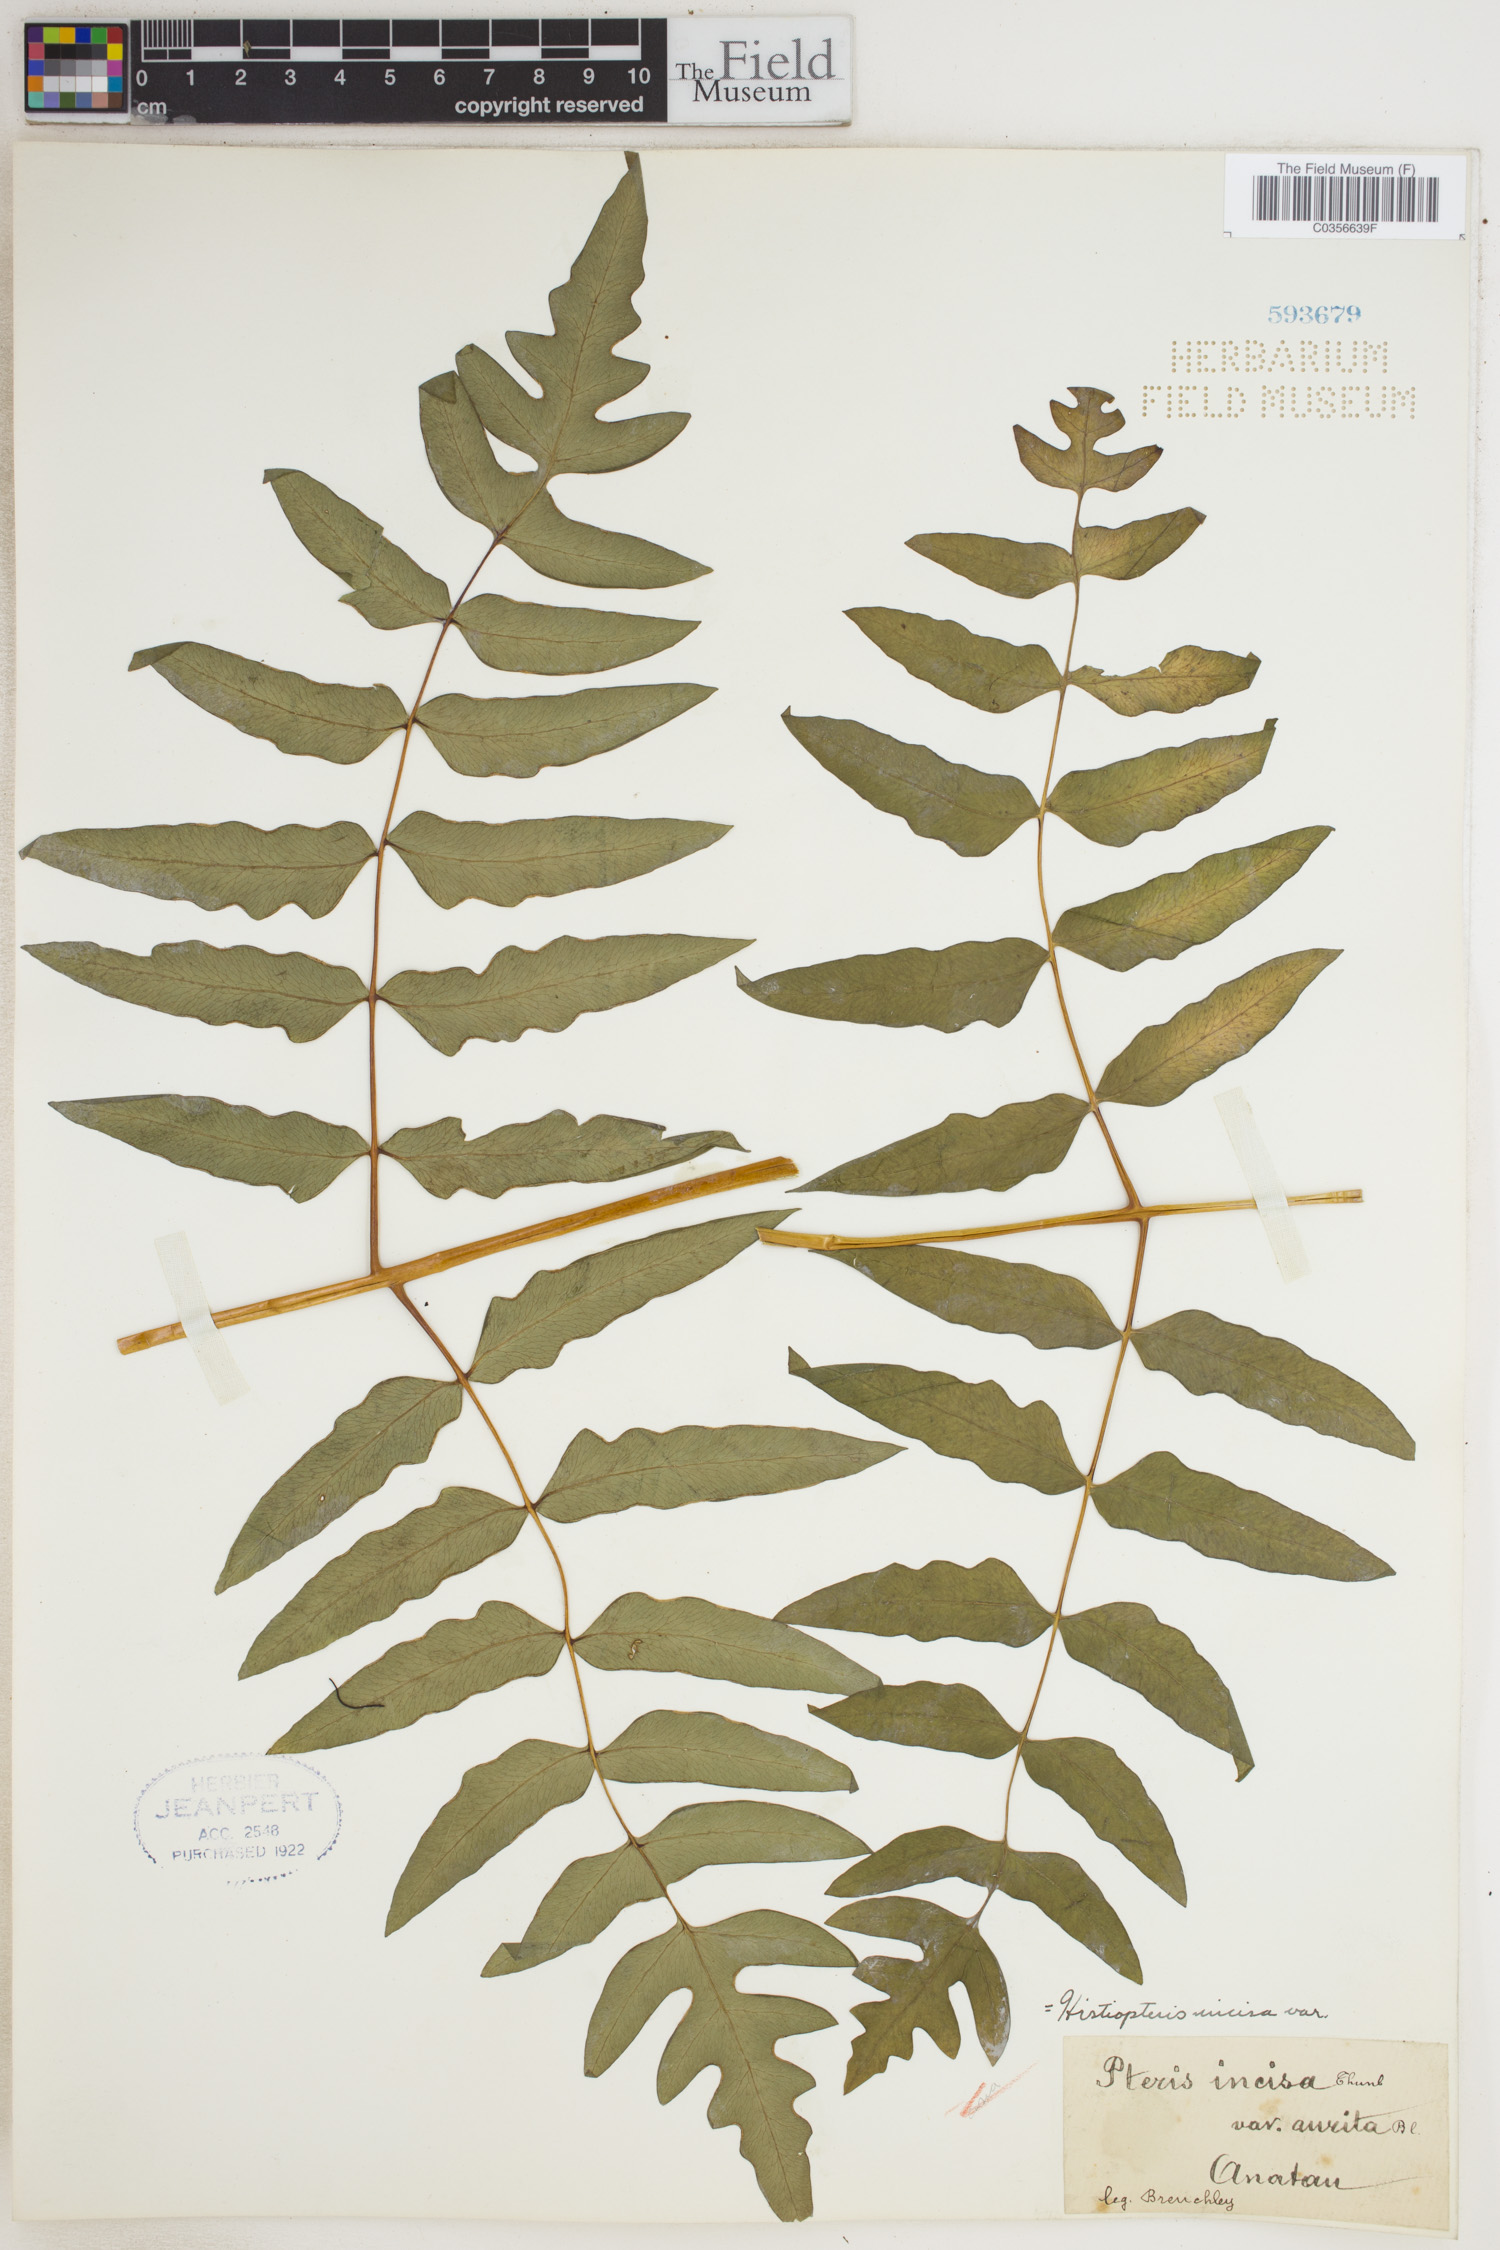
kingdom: Plantae
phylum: Tracheophyta
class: Polypodiopsida
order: Polypodiales
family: Dennstaedtiaceae
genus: Histiopteris
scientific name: Histiopteris incisa
